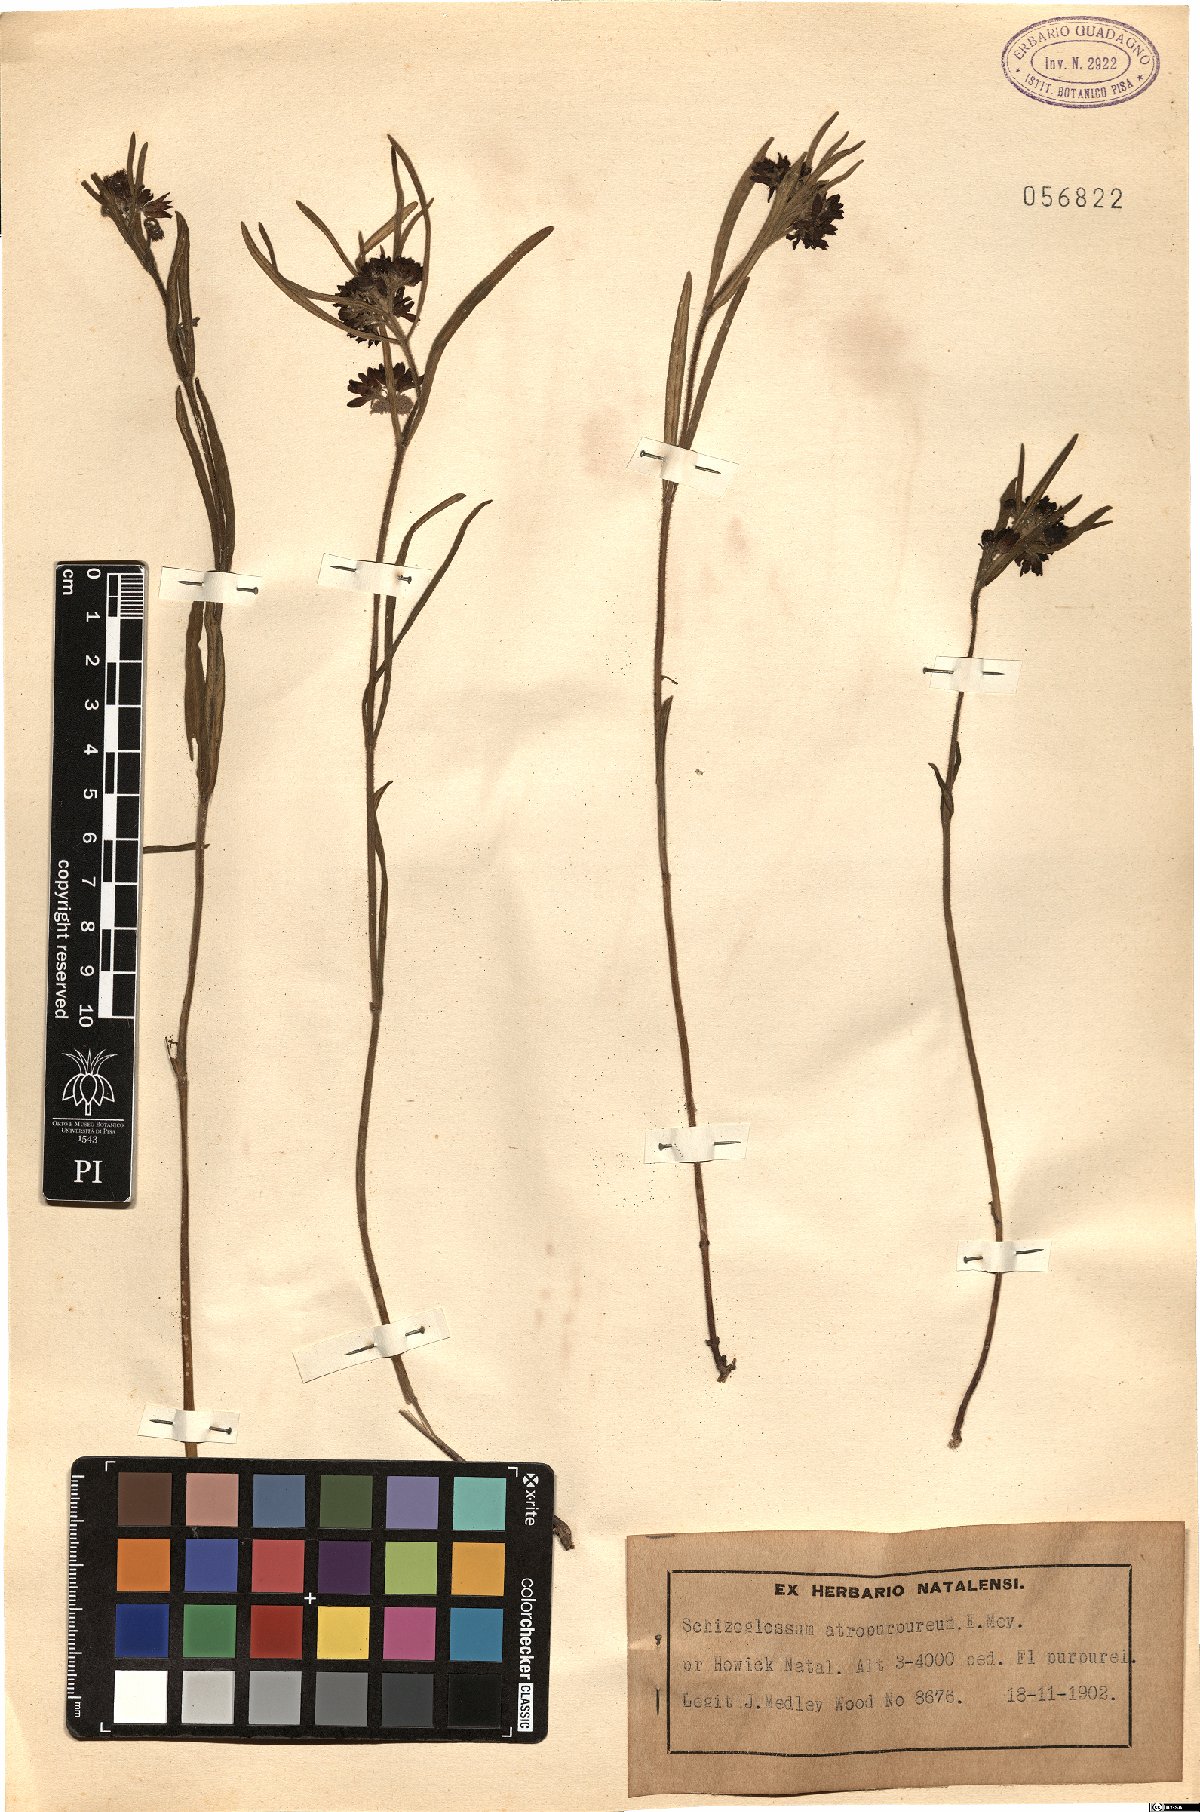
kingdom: Plantae
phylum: Tracheophyta
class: Magnoliopsida
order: Gentianales
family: Apocynaceae
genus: Schizoglossum
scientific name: Schizoglossum atropurpureum
